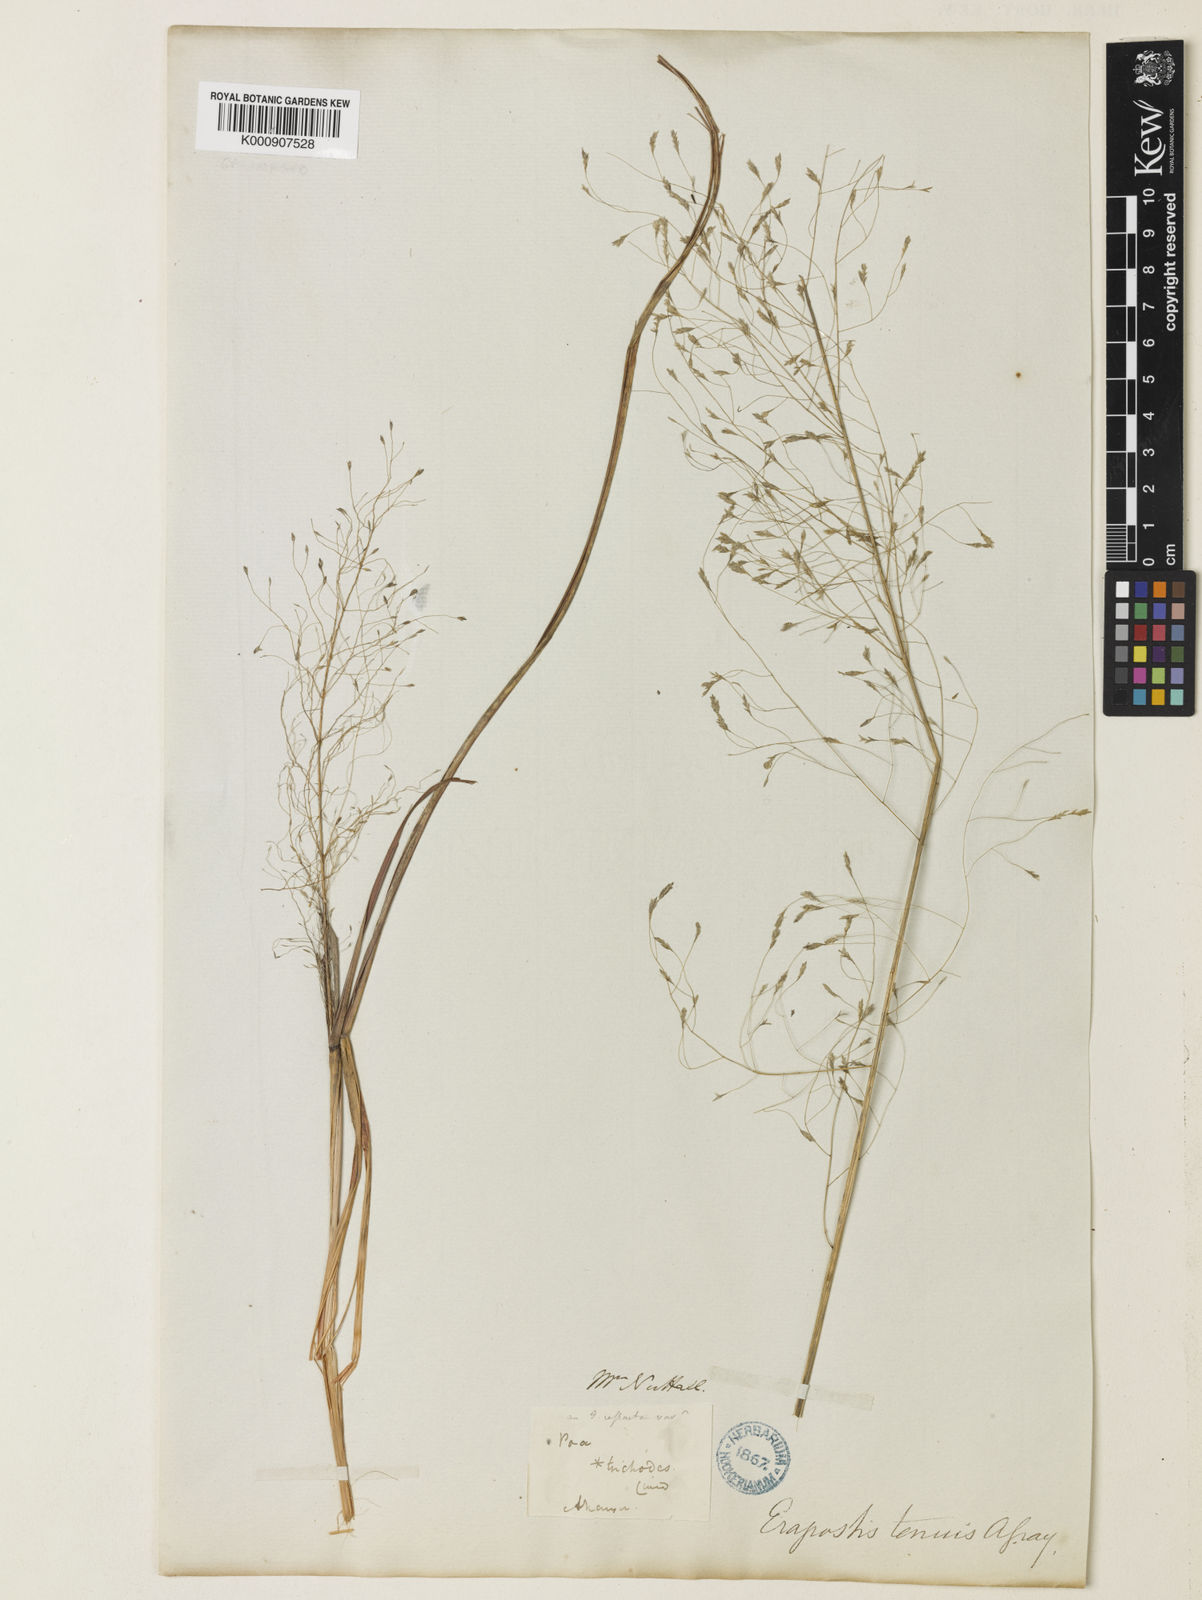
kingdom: Plantae
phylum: Tracheophyta
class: Liliopsida
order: Poales
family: Poaceae
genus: Eragrostis
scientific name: Eragrostis trichodes
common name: Sand love grass
